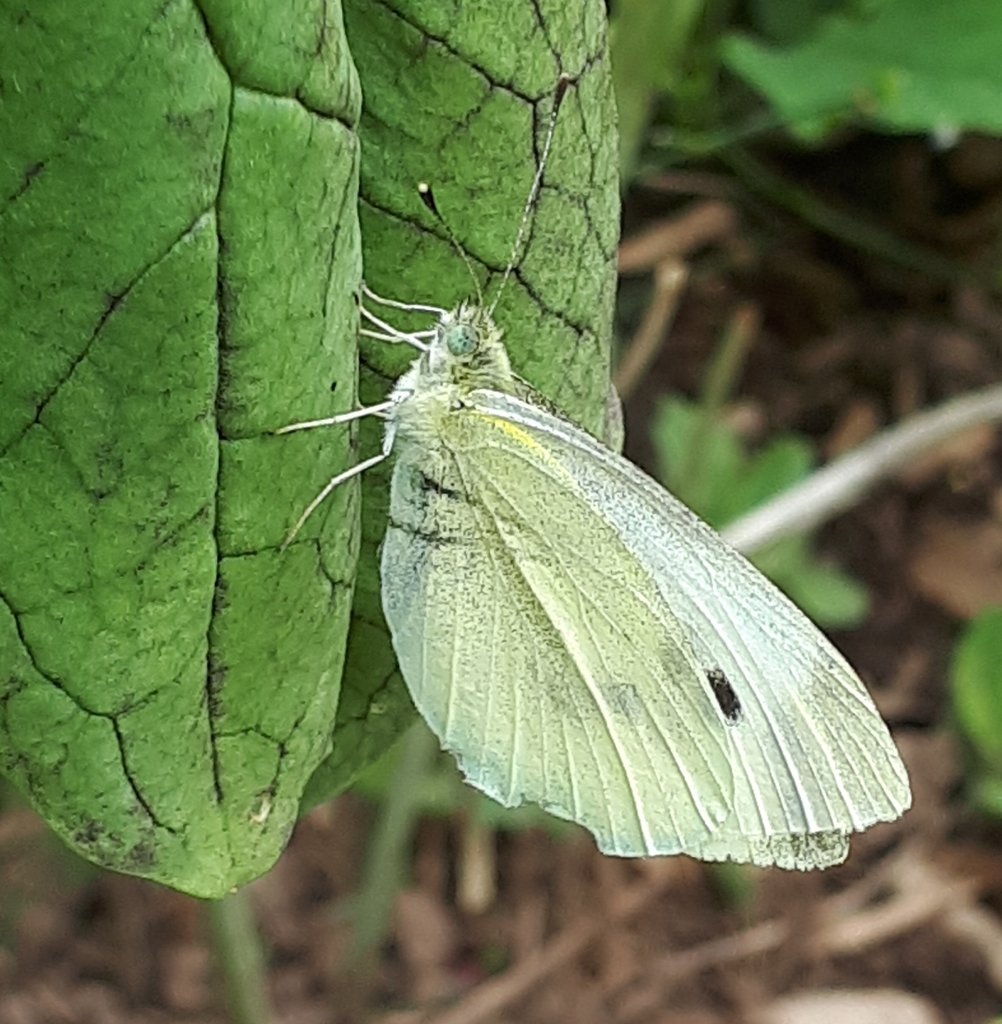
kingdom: Animalia
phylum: Arthropoda
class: Insecta
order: Lepidoptera
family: Pieridae
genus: Pieris
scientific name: Pieris rapae
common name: Cabbage White
